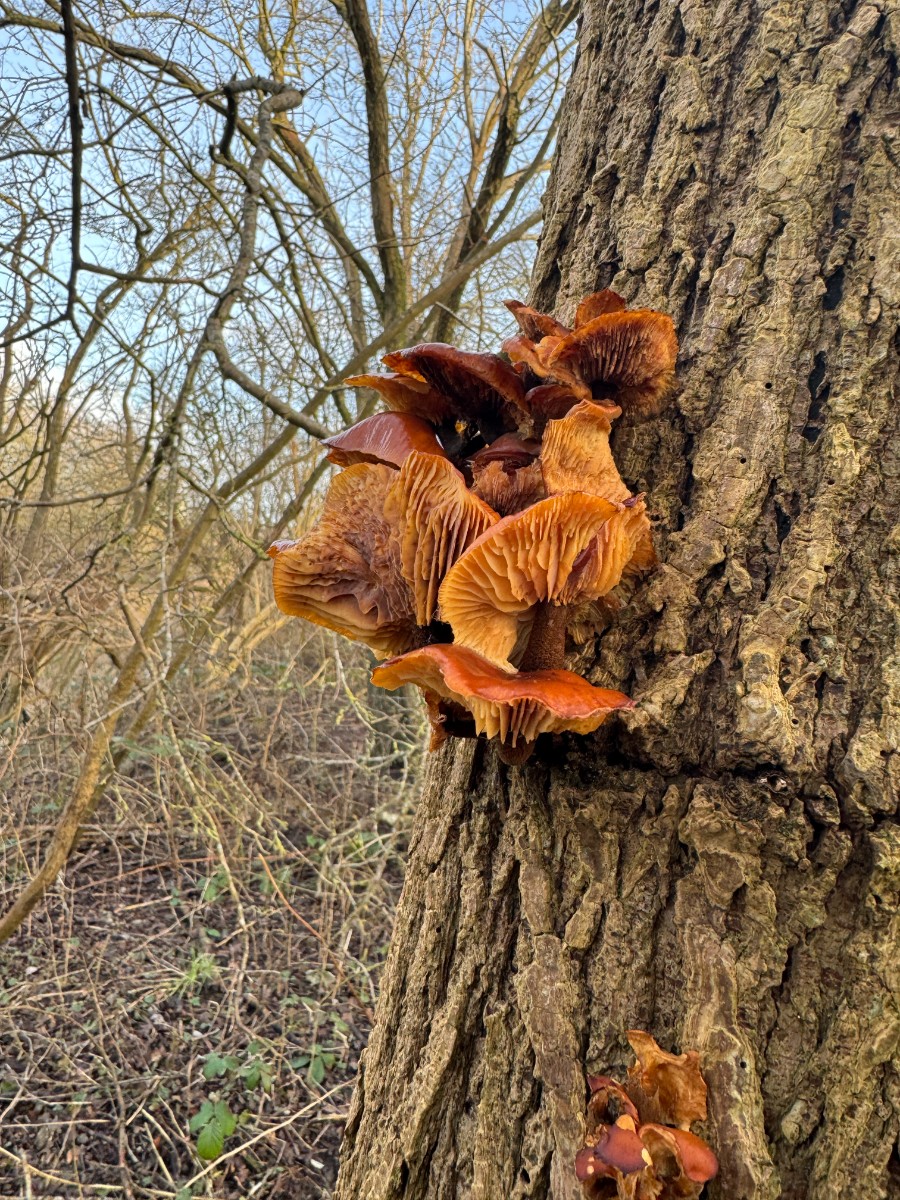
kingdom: Fungi
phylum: Basidiomycota
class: Agaricomycetes
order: Agaricales
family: Physalacriaceae
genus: Flammulina
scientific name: Flammulina
